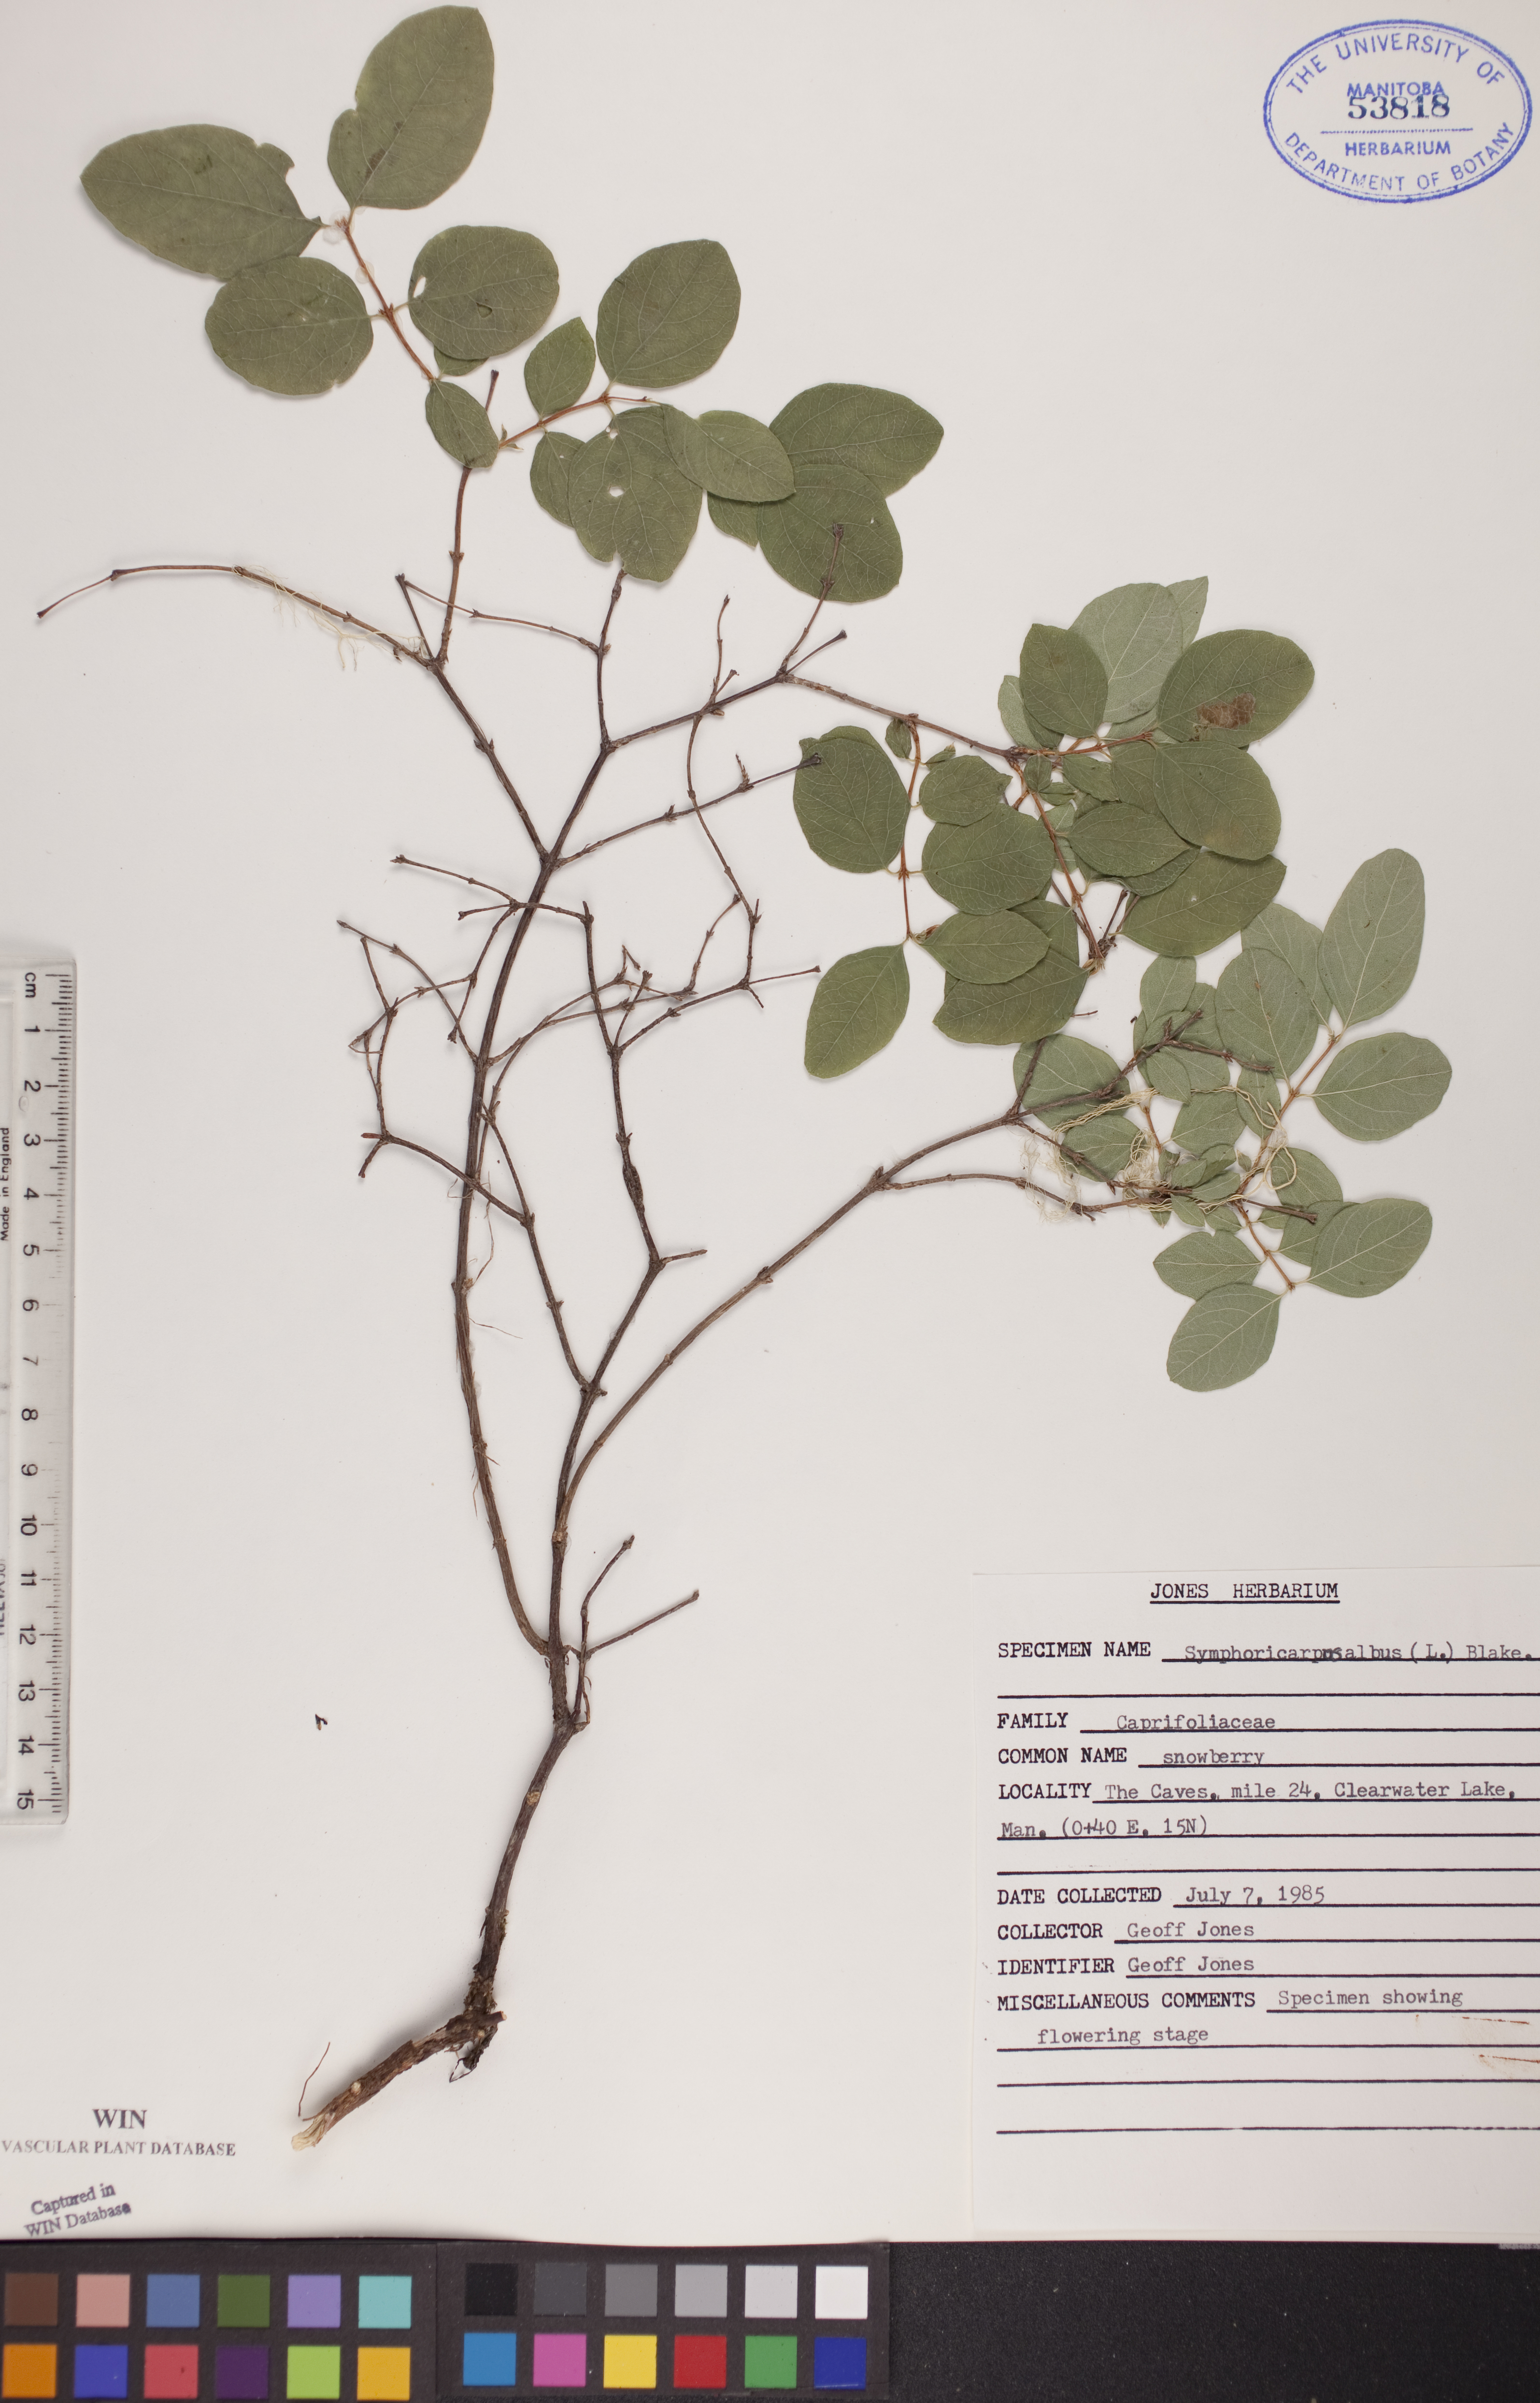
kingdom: Plantae
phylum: Tracheophyta
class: Magnoliopsida
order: Dipsacales
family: Caprifoliaceae
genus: Symphoricarpos
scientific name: Symphoricarpos albus
